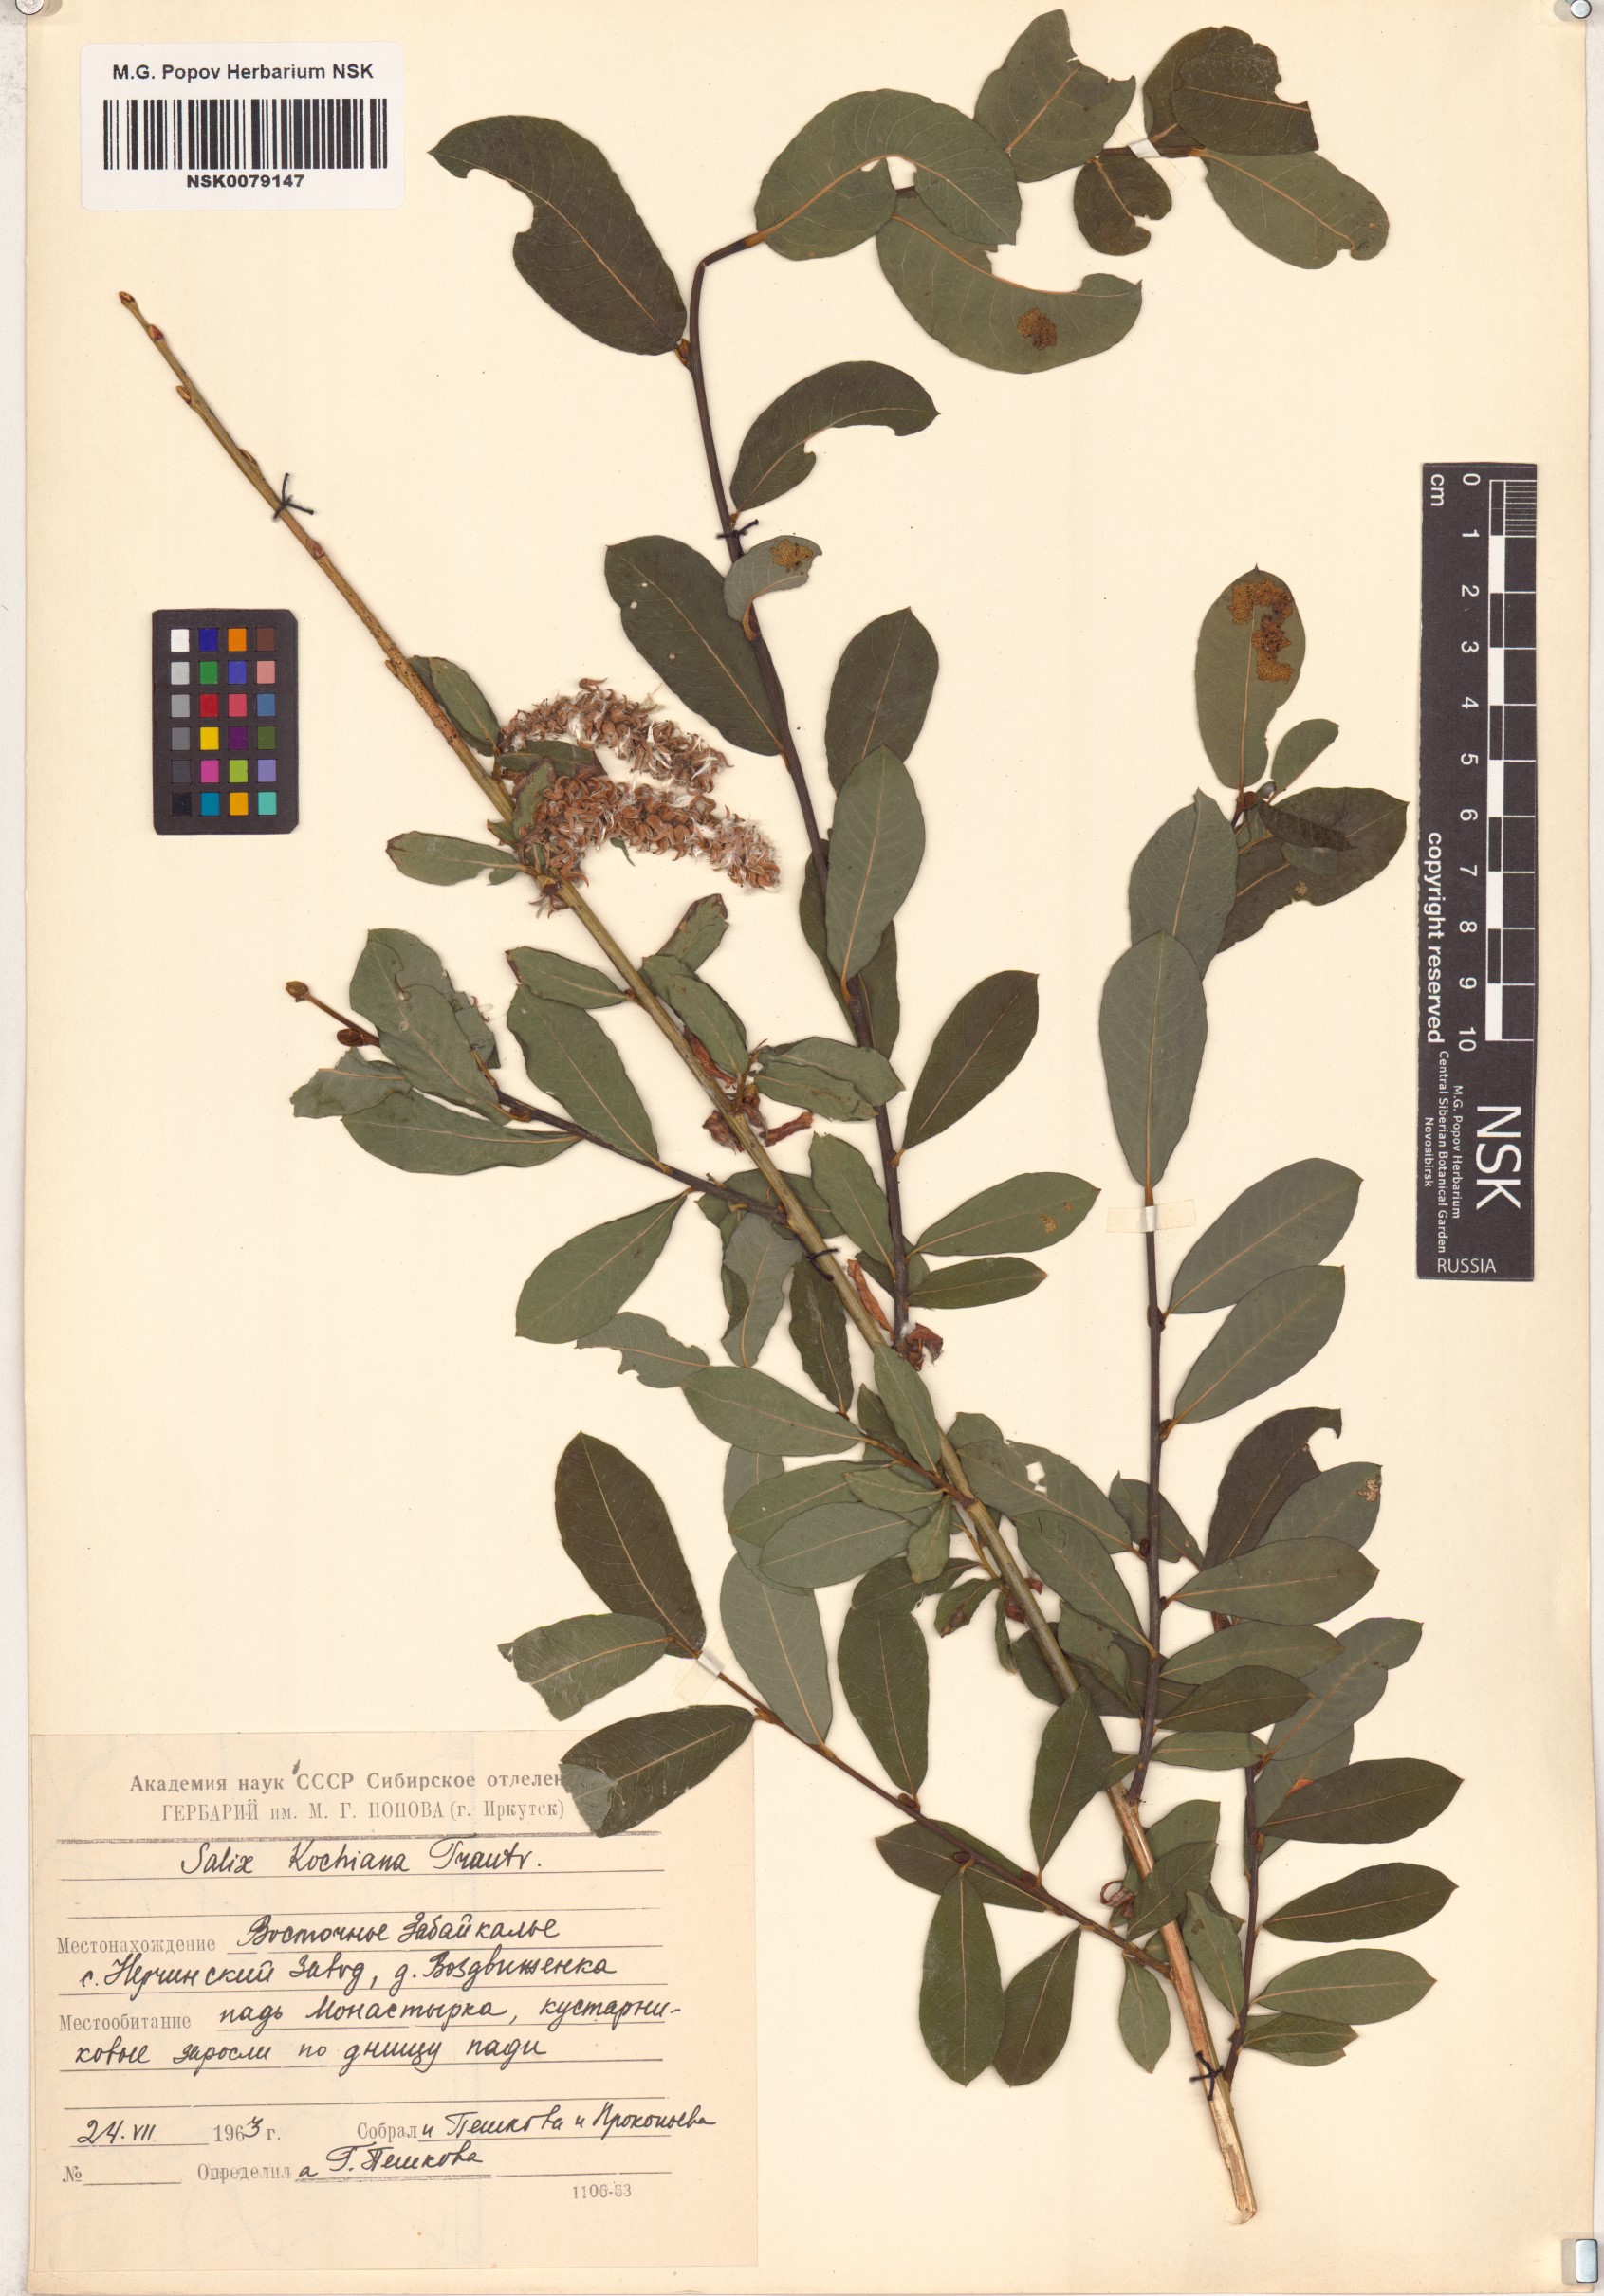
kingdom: Plantae
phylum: Tracheophyta
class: Magnoliopsida
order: Malpighiales
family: Salicaceae
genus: Salix
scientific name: Salix kochiana
